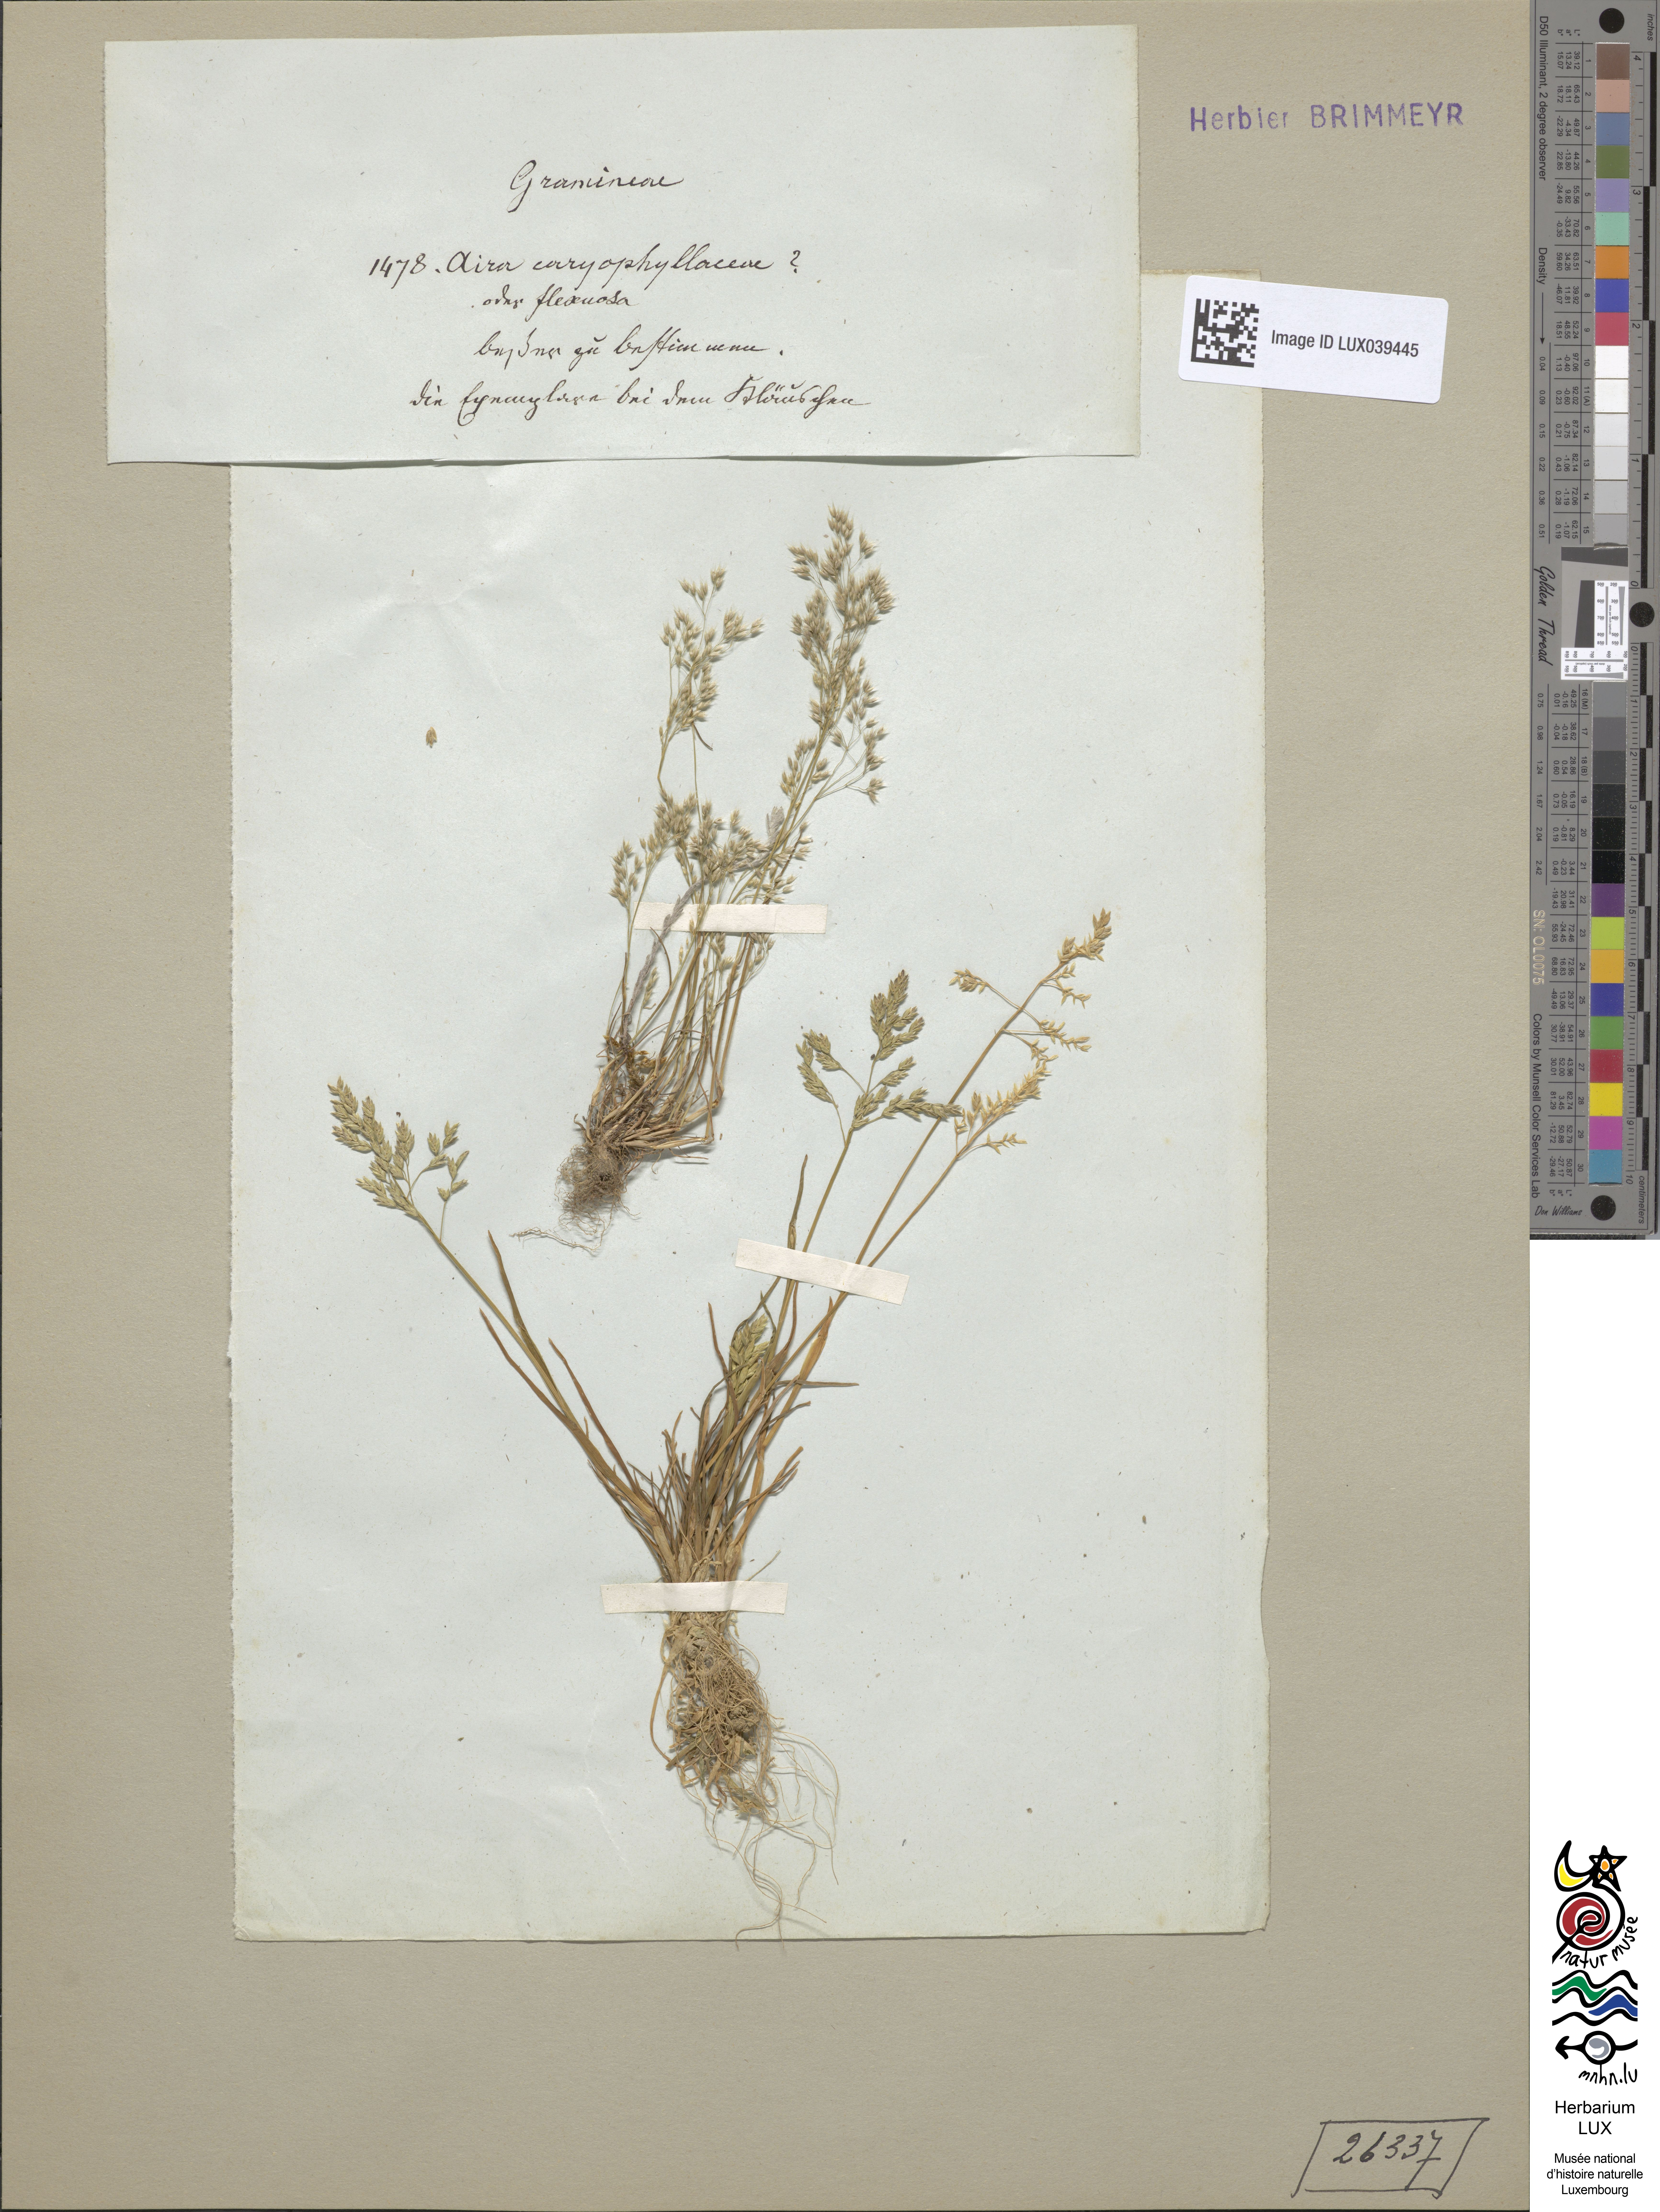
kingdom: Plantae
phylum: Tracheophyta
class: Liliopsida
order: Poales
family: Poaceae
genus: Avenella
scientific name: Avenella flexuosa
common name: Wavy hairgrass
